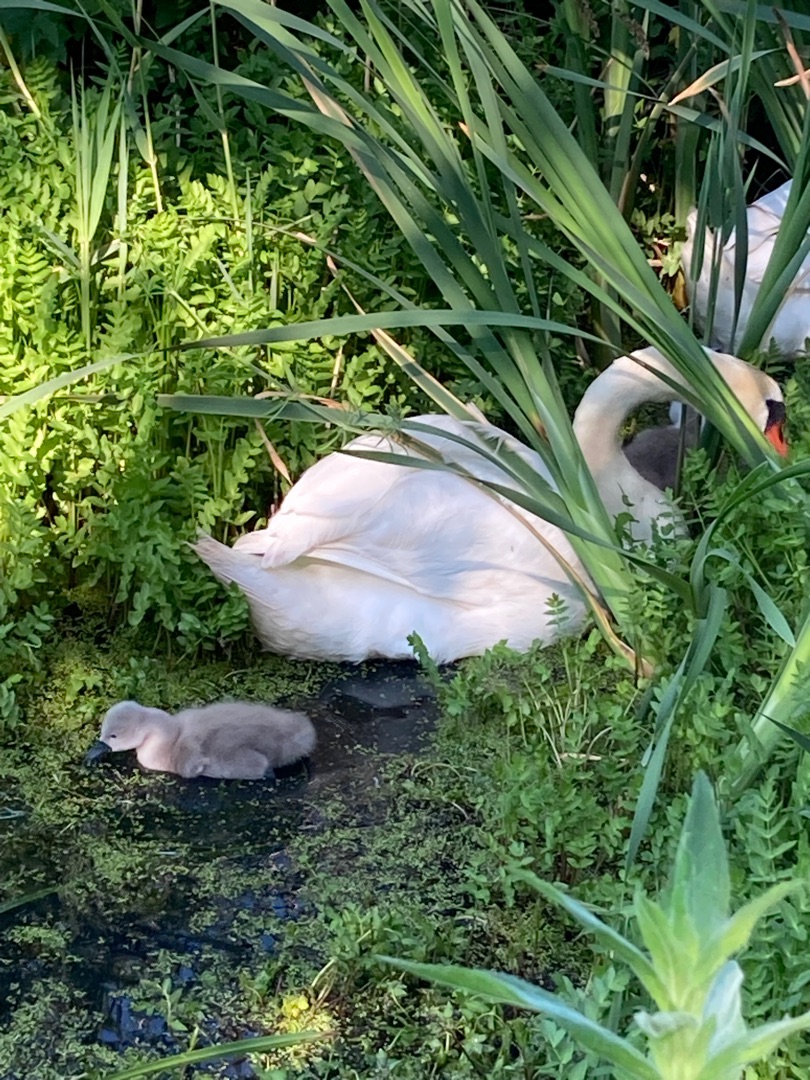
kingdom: Animalia
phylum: Chordata
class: Aves
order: Anseriformes
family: Anatidae
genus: Cygnus
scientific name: Cygnus olor
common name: Knopsvane
